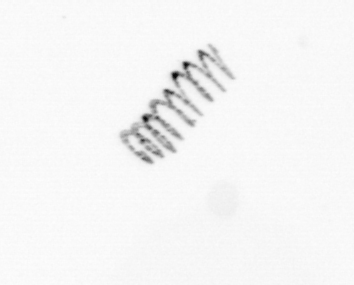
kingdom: Chromista
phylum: Ochrophyta
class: Bacillariophyceae
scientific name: Bacillariophyceae
